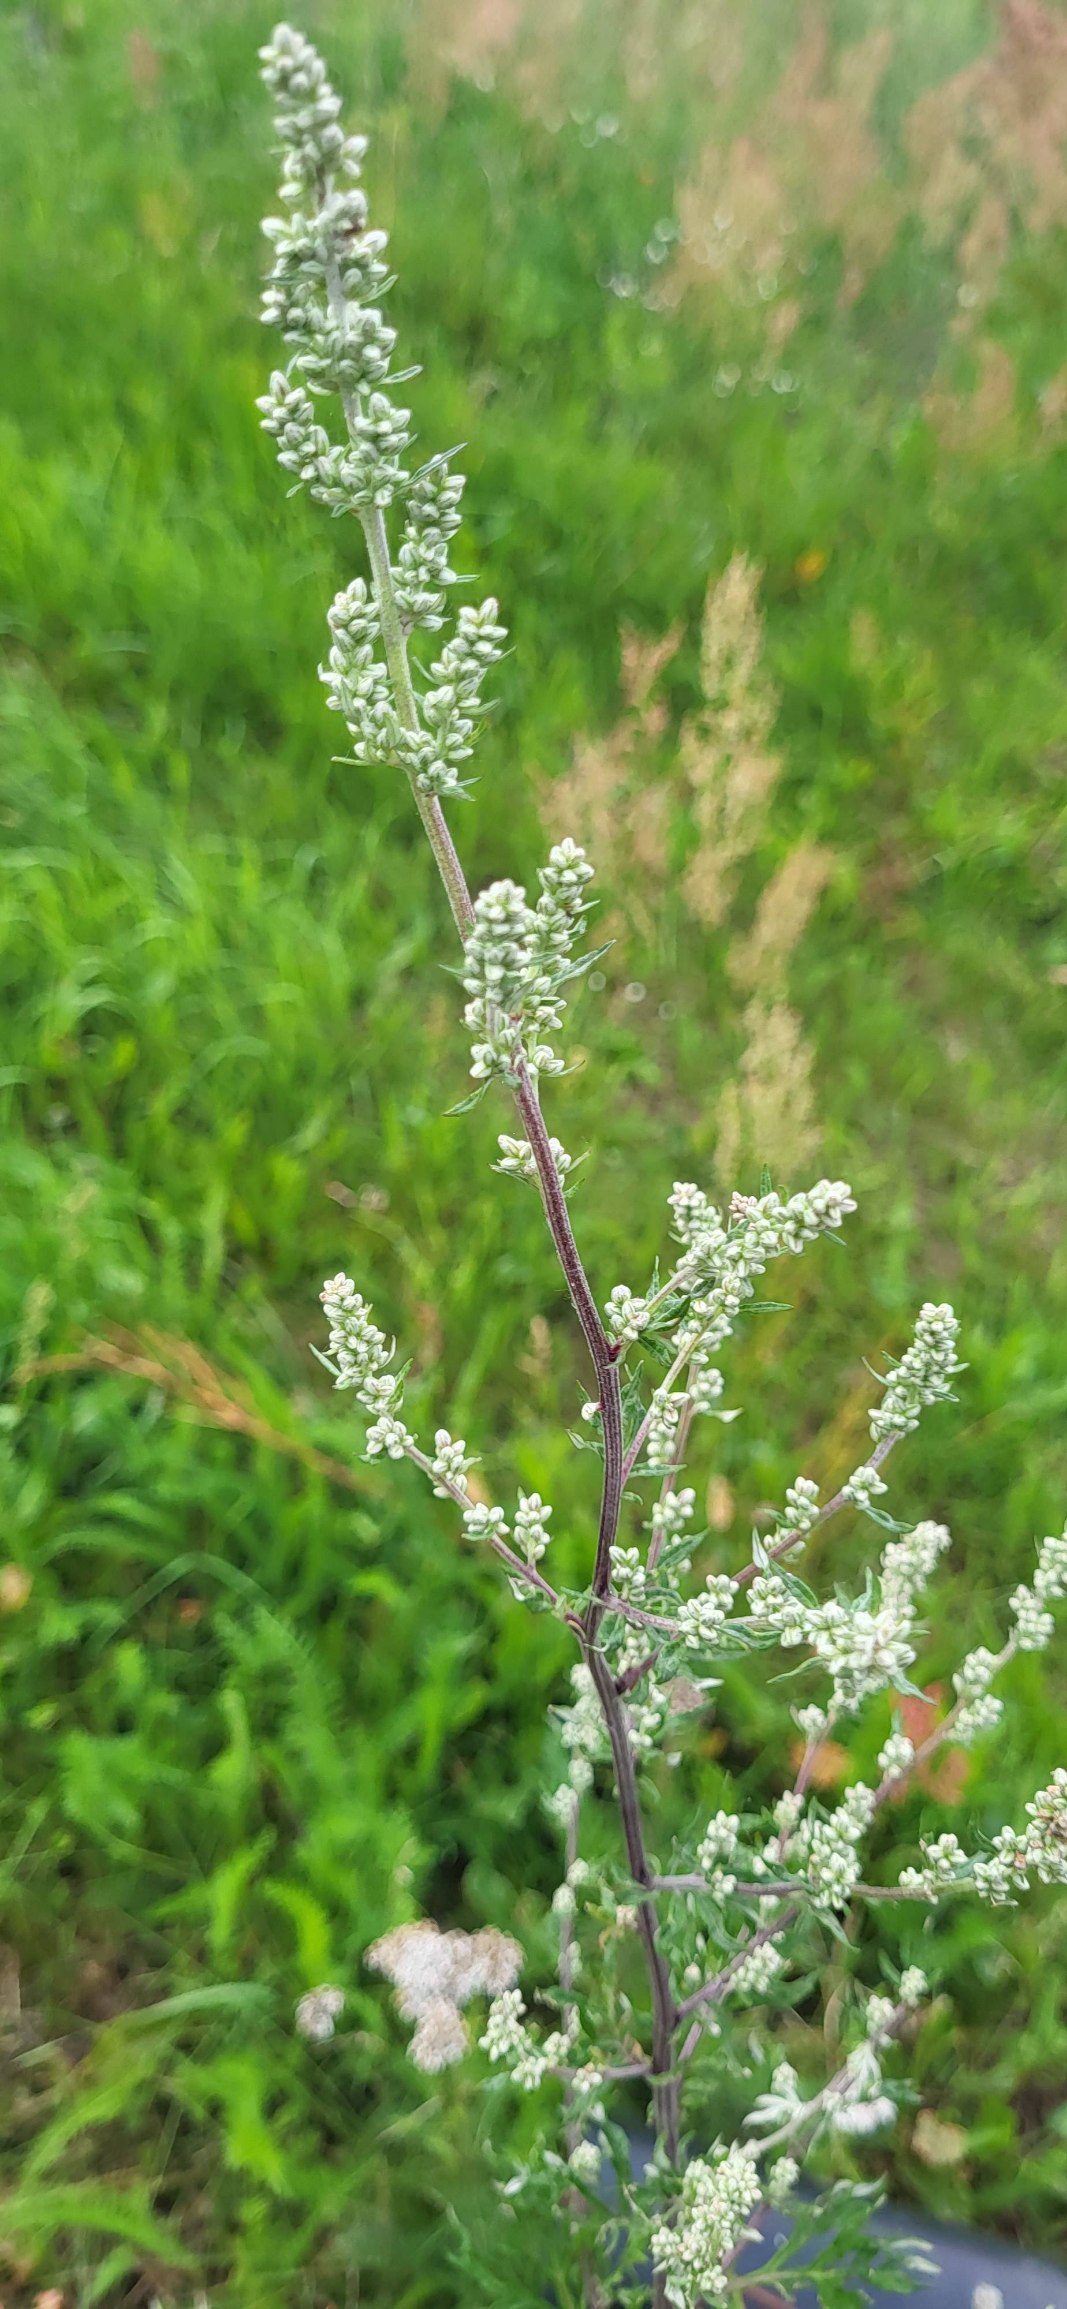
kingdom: Plantae
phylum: Tracheophyta
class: Magnoliopsida
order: Asterales
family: Asteraceae
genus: Artemisia
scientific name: Artemisia vulgaris
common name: Grå-bynke
